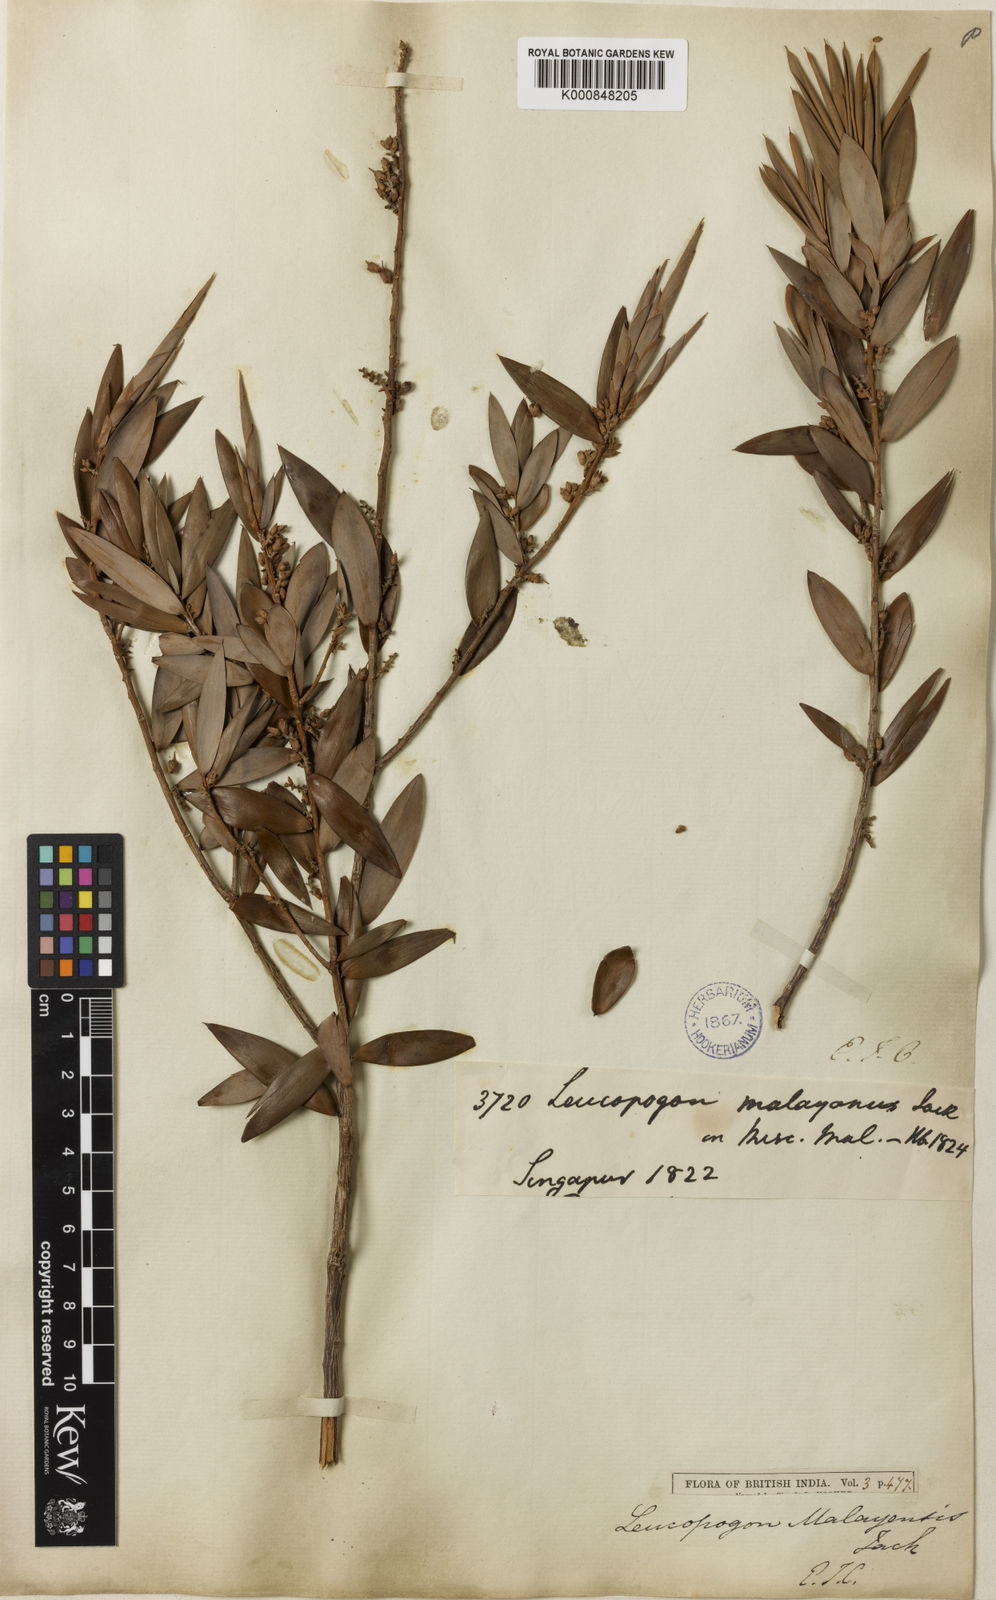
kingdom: Plantae
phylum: Tracheophyta
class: Magnoliopsida
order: Ericales
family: Ericaceae
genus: Styphelia
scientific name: Styphelia
